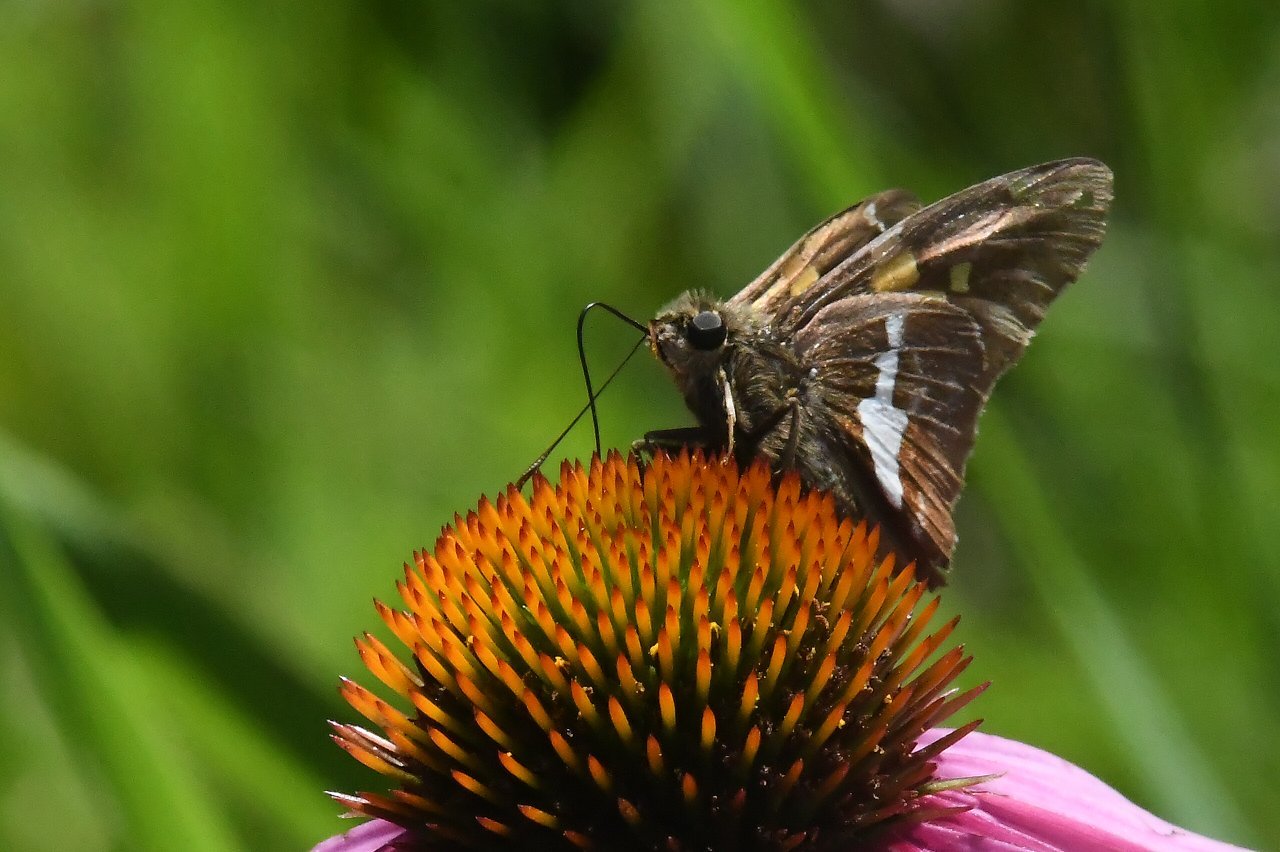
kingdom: Animalia
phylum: Arthropoda
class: Insecta
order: Lepidoptera
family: Hesperiidae
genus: Epargyreus
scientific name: Epargyreus clarus
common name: Silver-spotted Skipper
